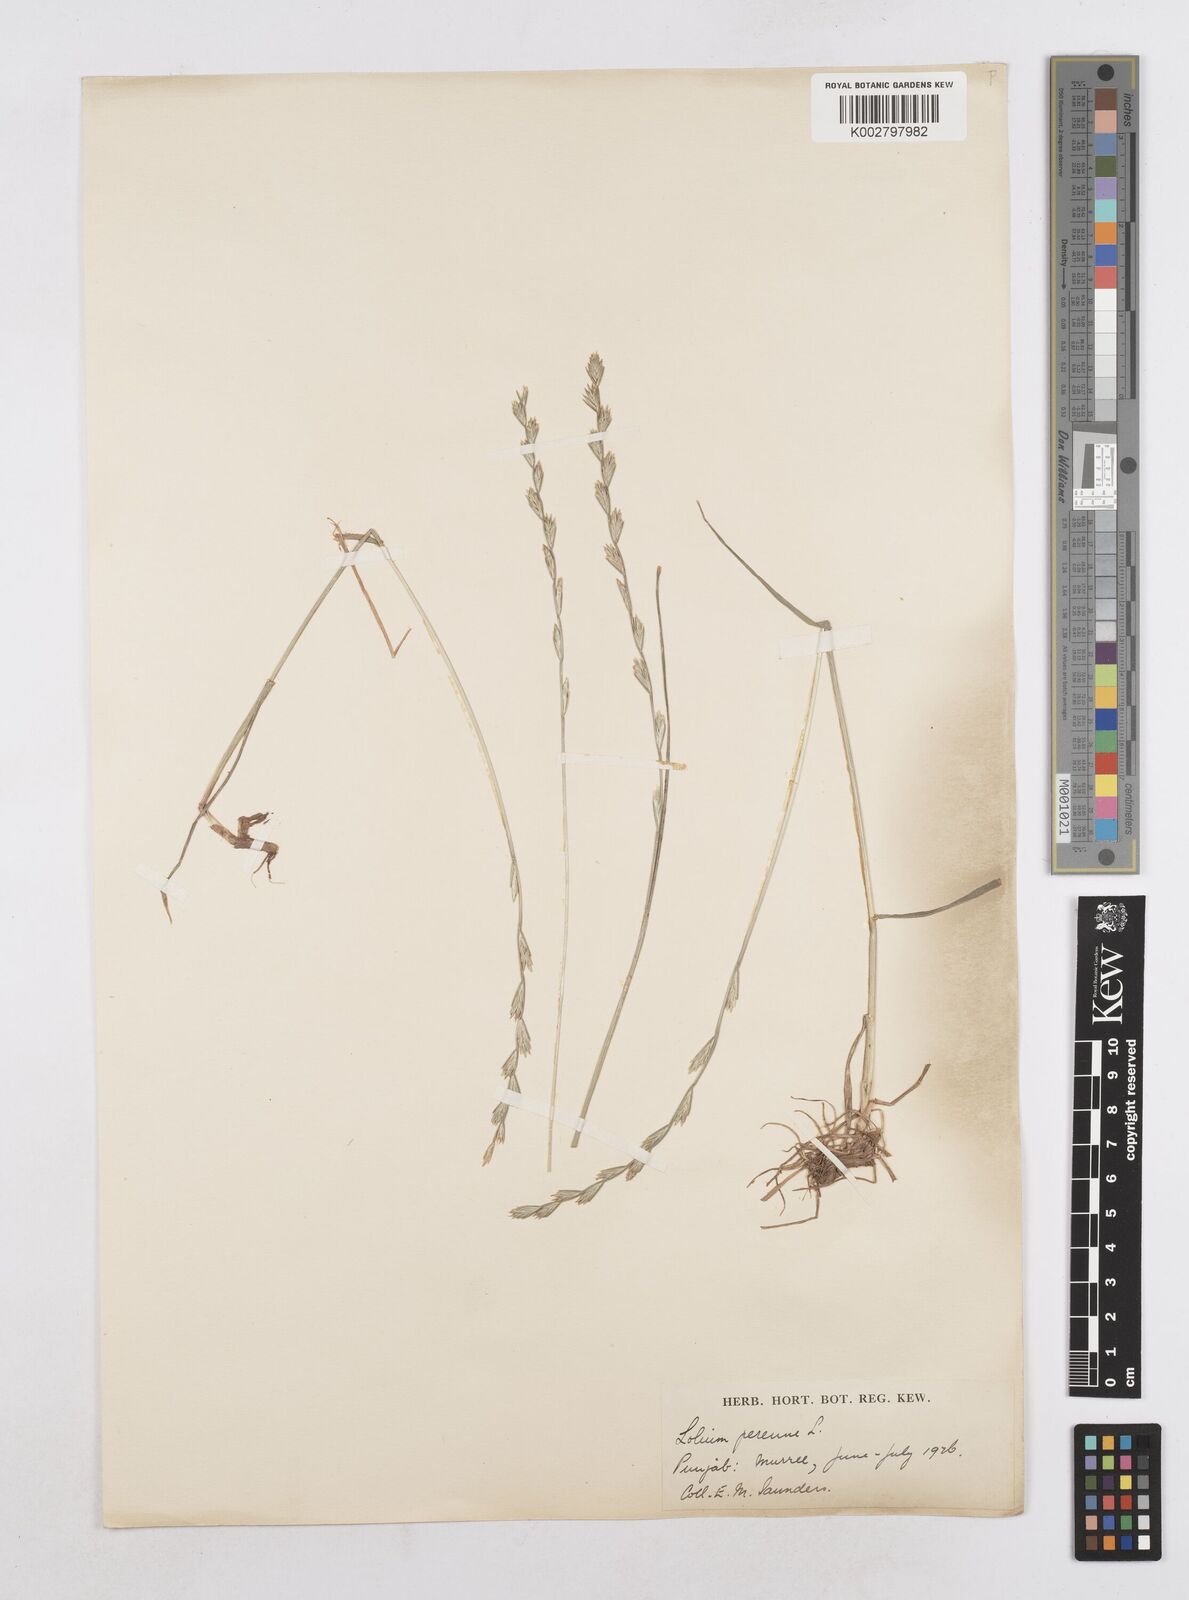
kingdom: Plantae
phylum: Tracheophyta
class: Liliopsida
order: Poales
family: Poaceae
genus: Lolium
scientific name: Lolium perenne
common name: Perennial ryegrass
